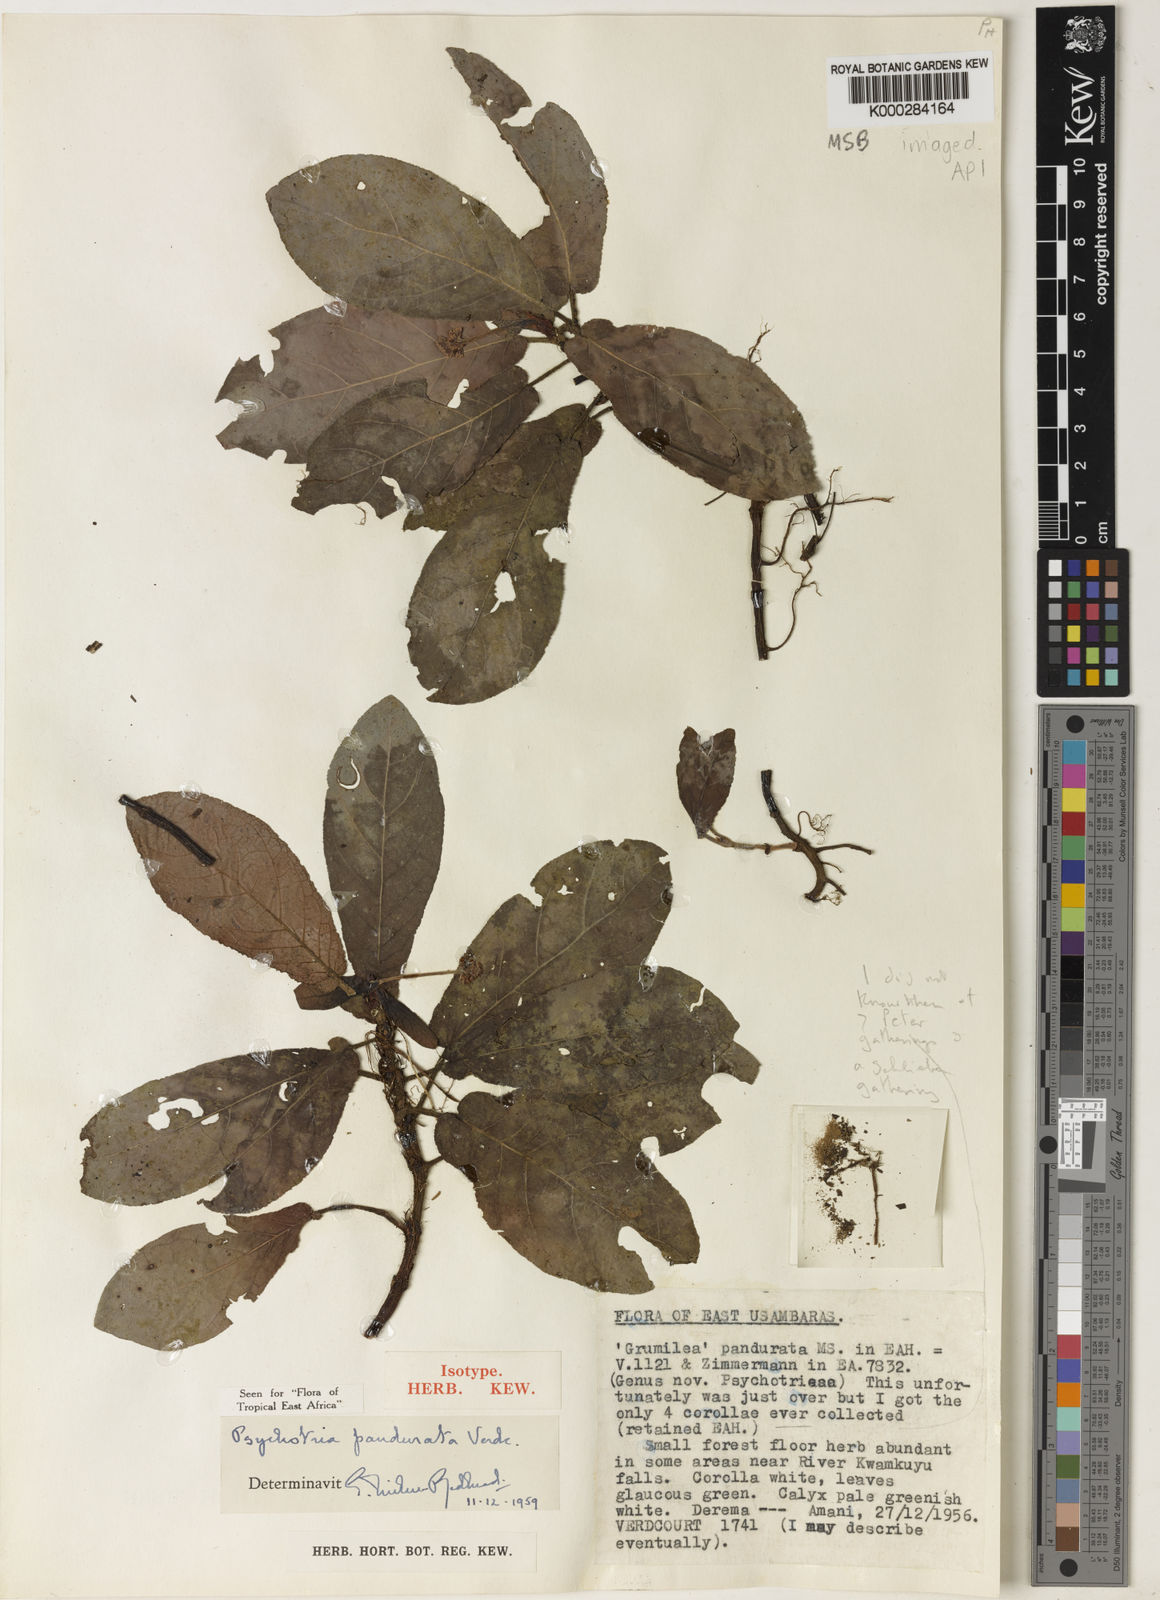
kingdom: Plantae
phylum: Tracheophyta
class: Magnoliopsida
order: Gentianales
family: Rubiaceae
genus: Psychotria
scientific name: Psychotria pandurata
